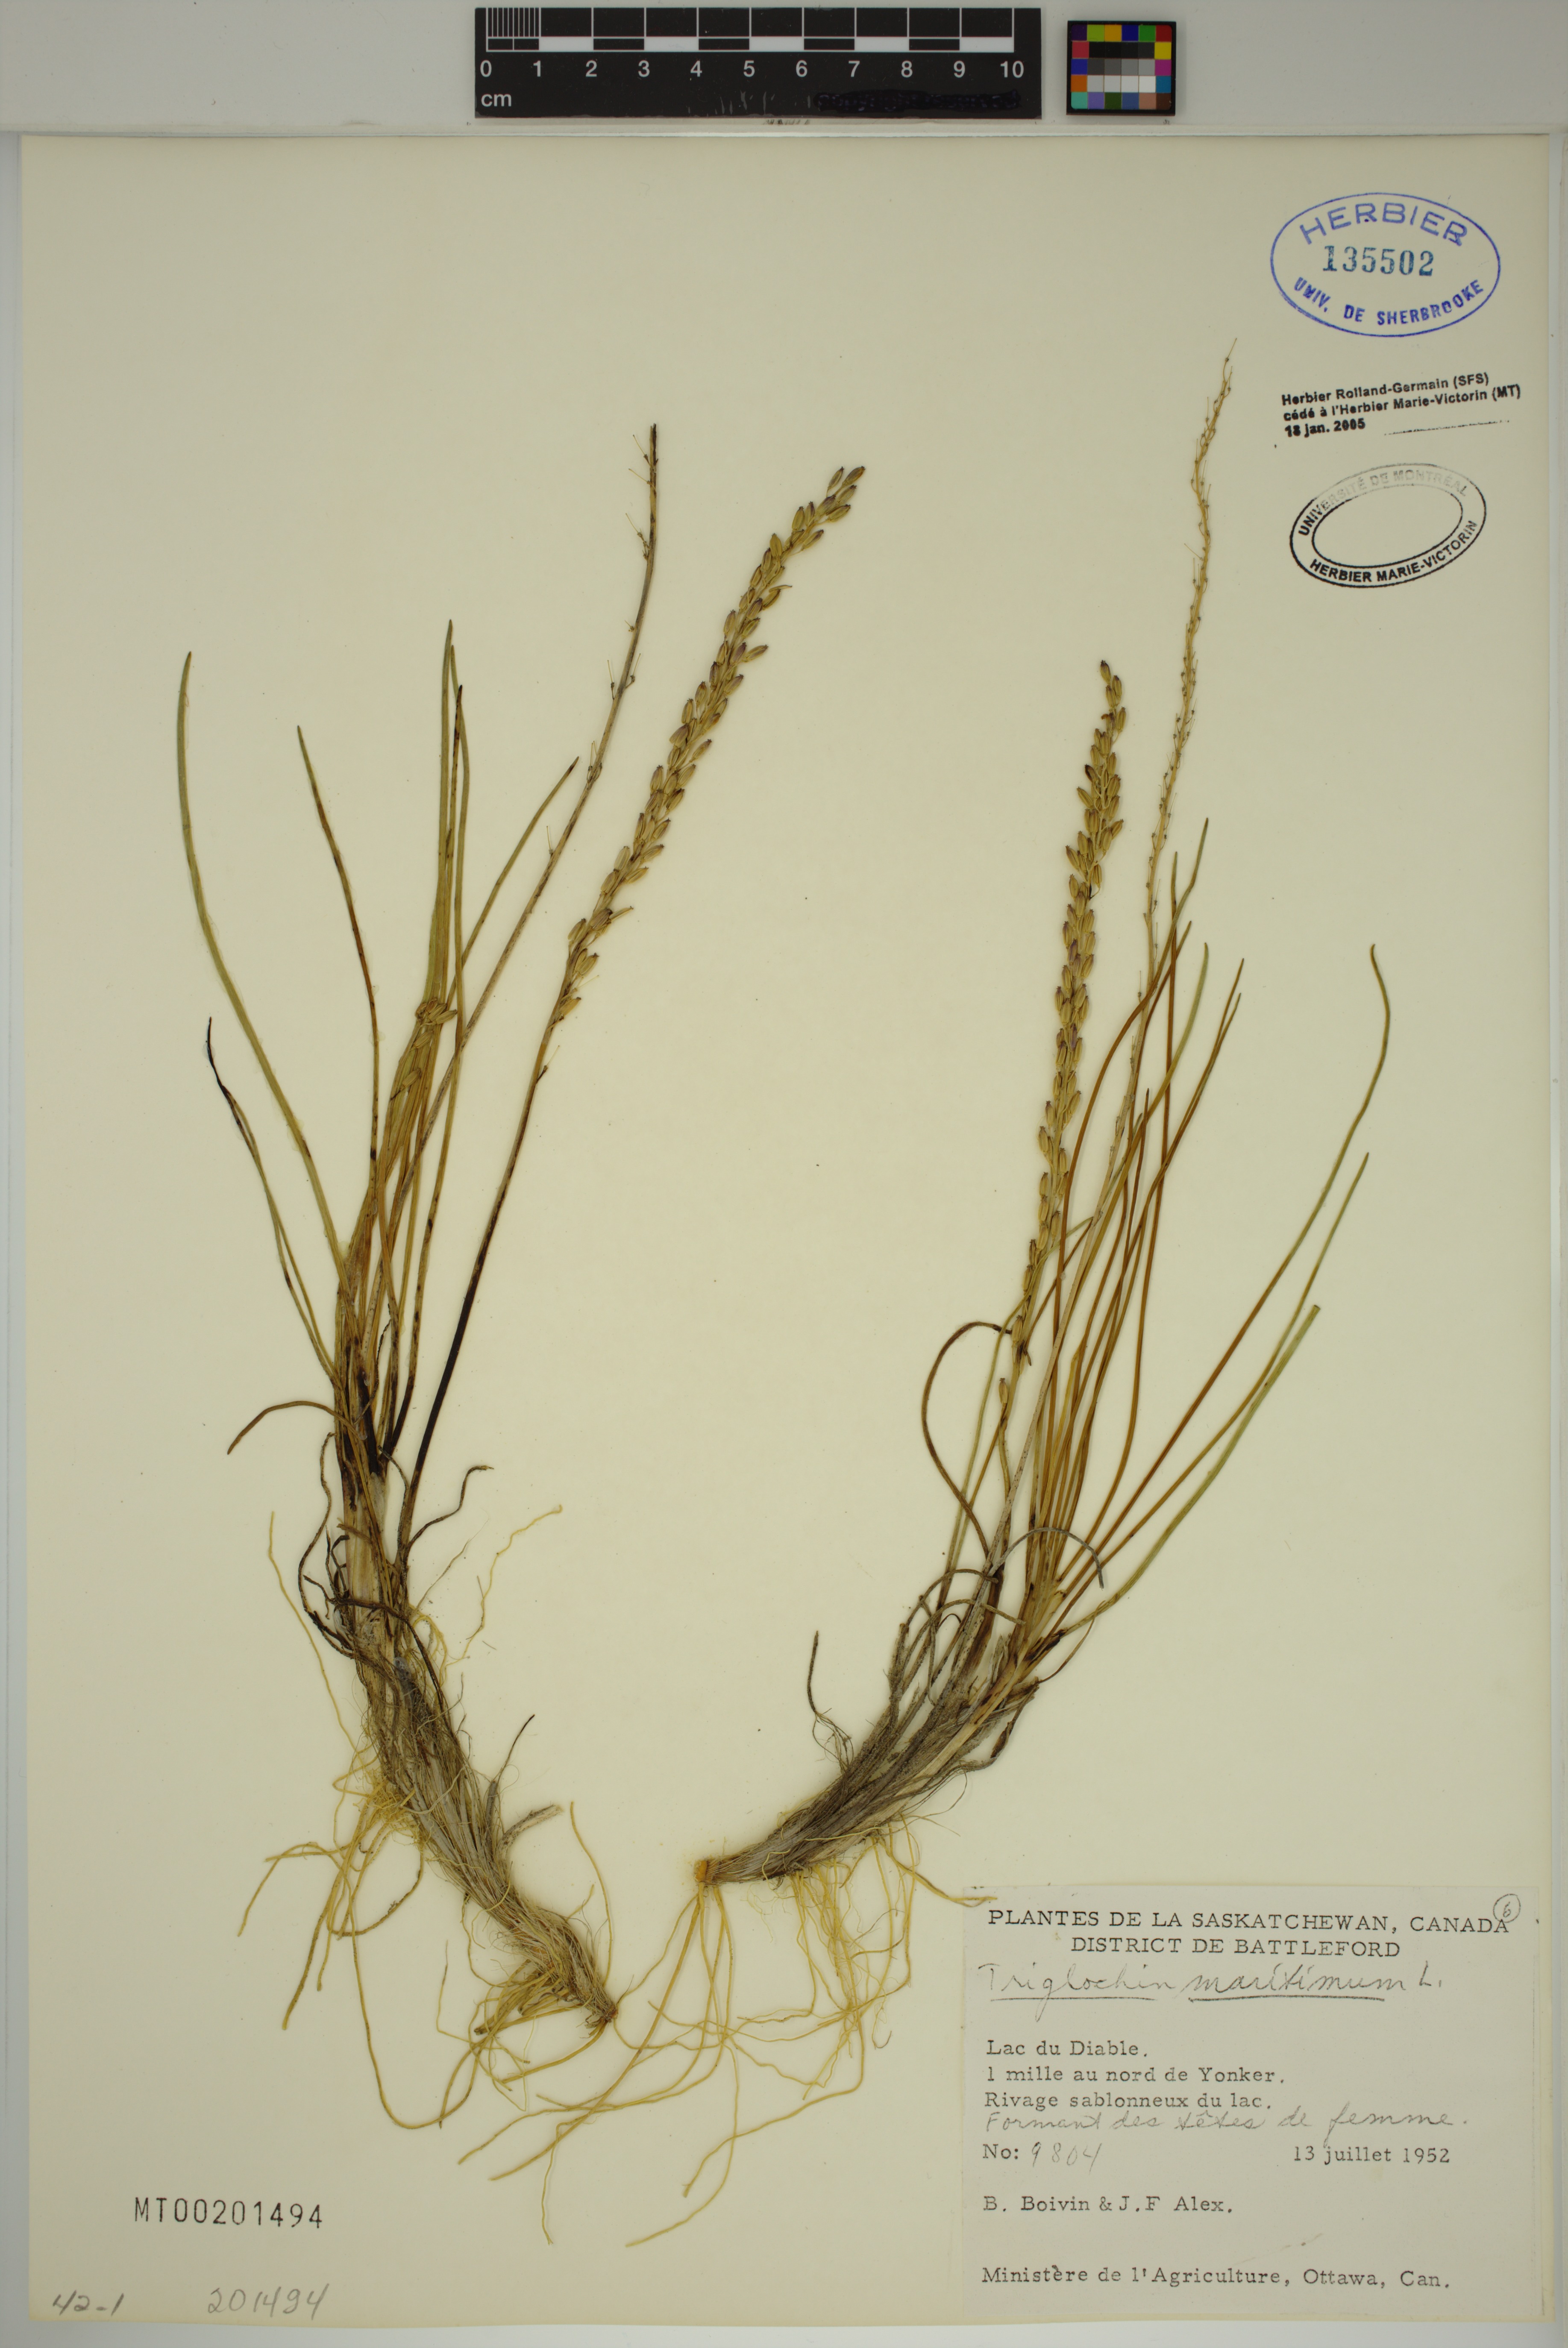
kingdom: Plantae
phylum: Tracheophyta
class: Liliopsida
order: Alismatales
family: Juncaginaceae
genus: Triglochin
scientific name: Triglochin maritima
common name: Sea arrowgrass
